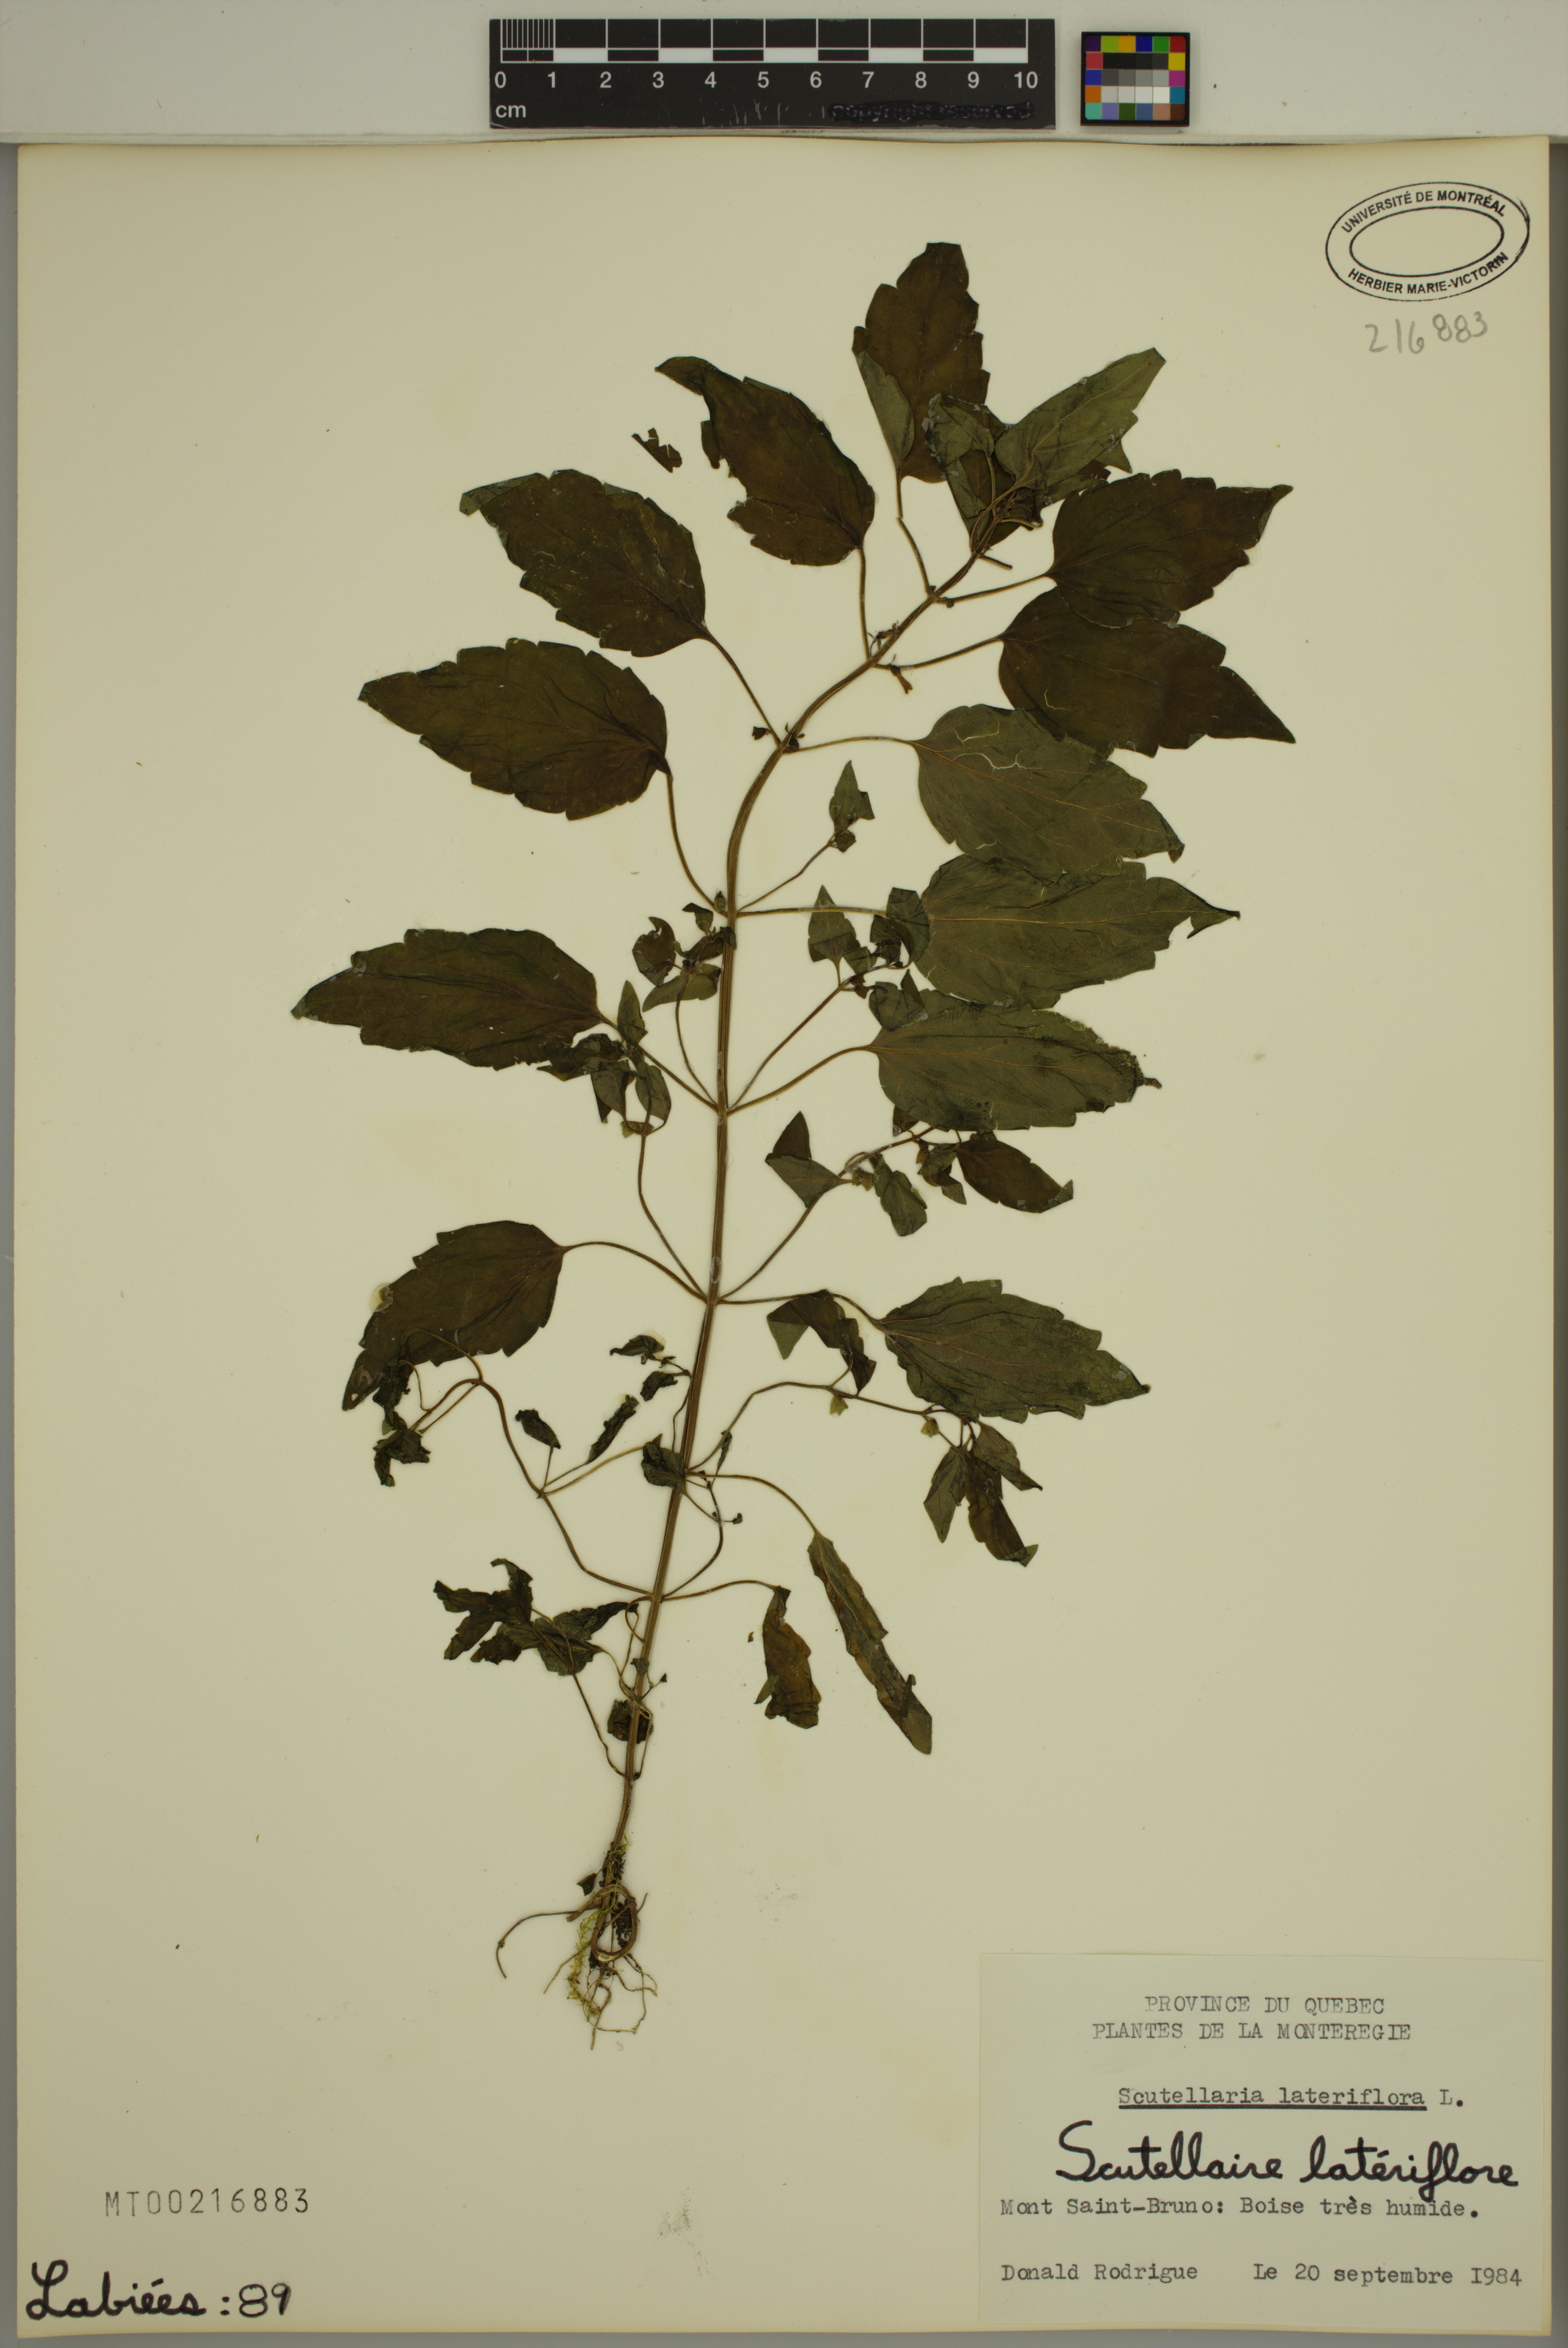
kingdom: Plantae
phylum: Tracheophyta
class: Magnoliopsida
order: Lamiales
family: Lamiaceae
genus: Scutellaria
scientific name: Scutellaria lateriflora
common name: Blue skullcap
